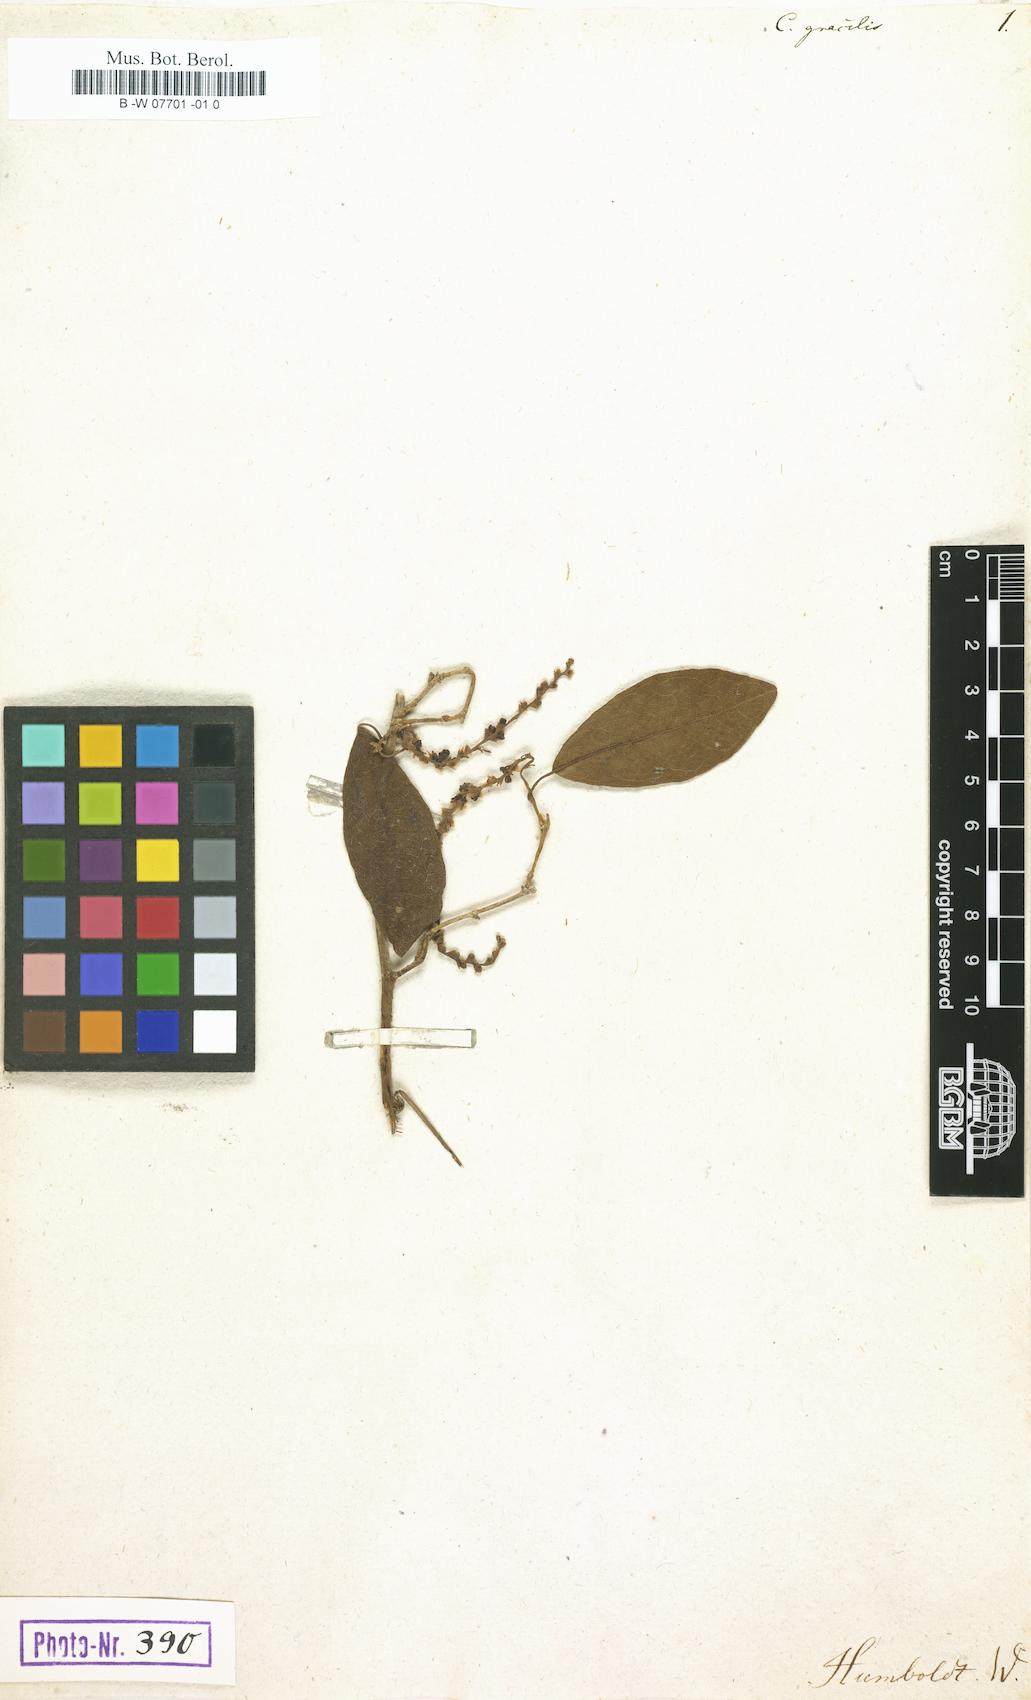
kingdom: Plantae
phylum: Tracheophyta
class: Magnoliopsida
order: Caryophyllales
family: Polygonaceae
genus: Coccoloba
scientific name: Coccoloba gracilis
